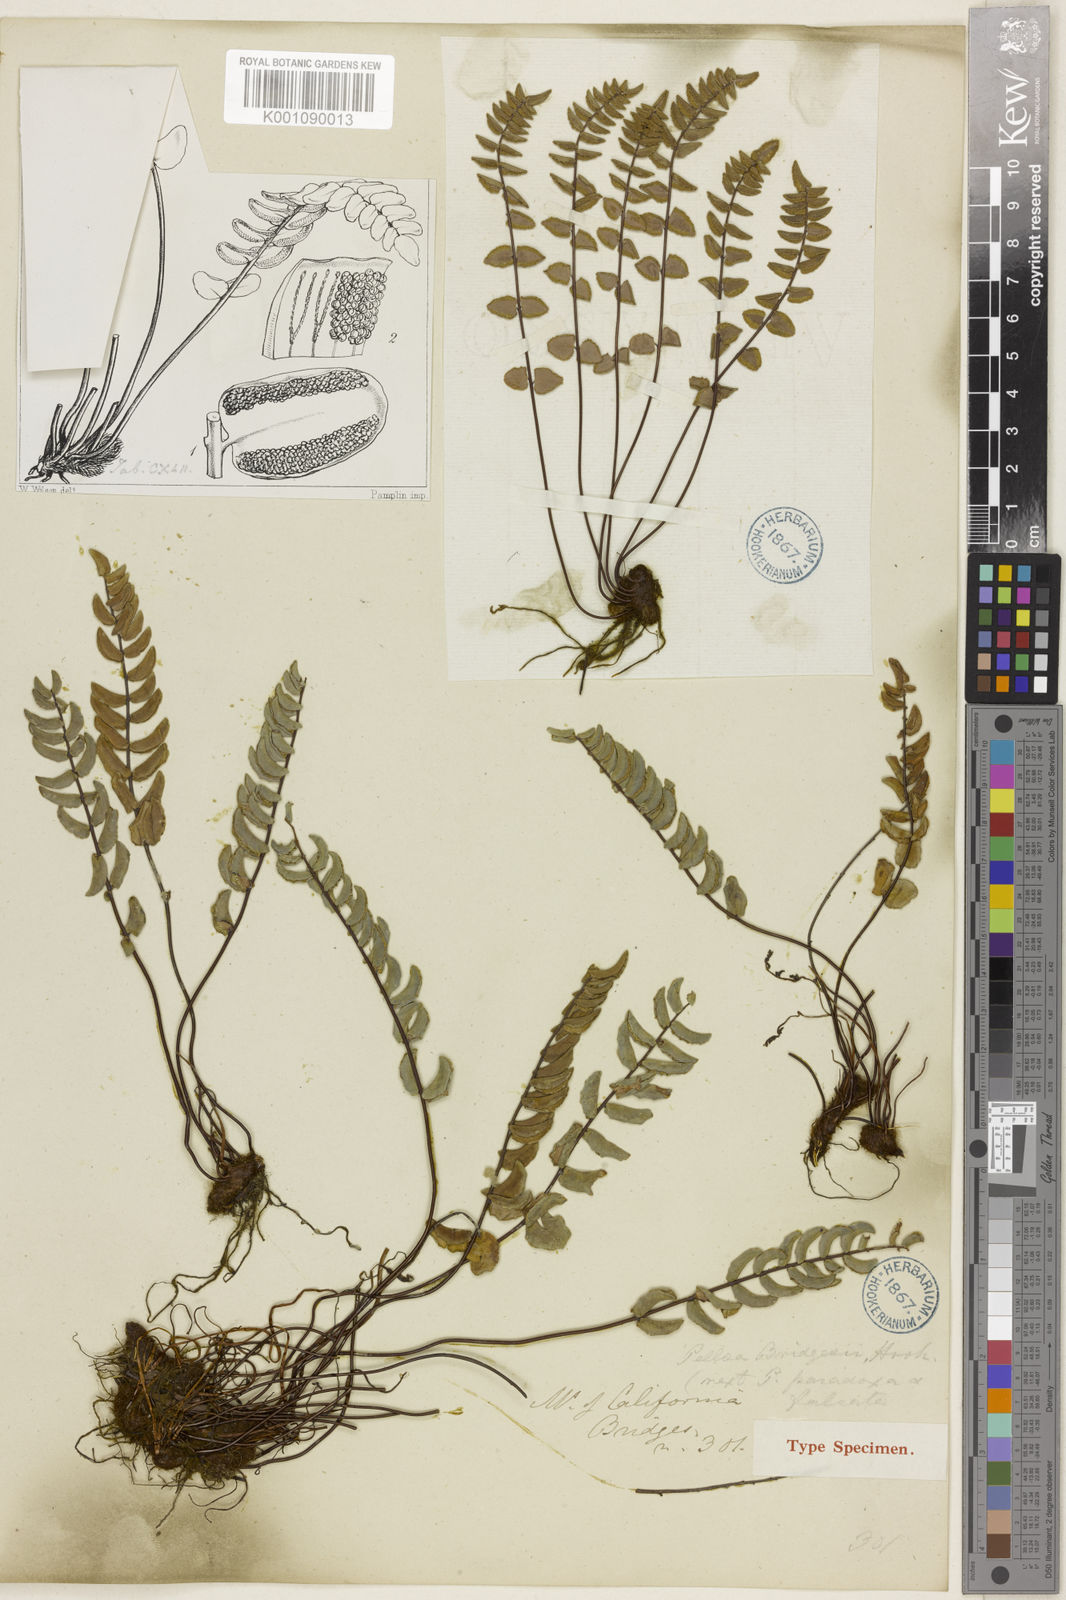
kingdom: Plantae
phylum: Tracheophyta
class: Polypodiopsida
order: Polypodiales
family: Pteridaceae
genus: Pellaea
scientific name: Pellaea bridgesii
